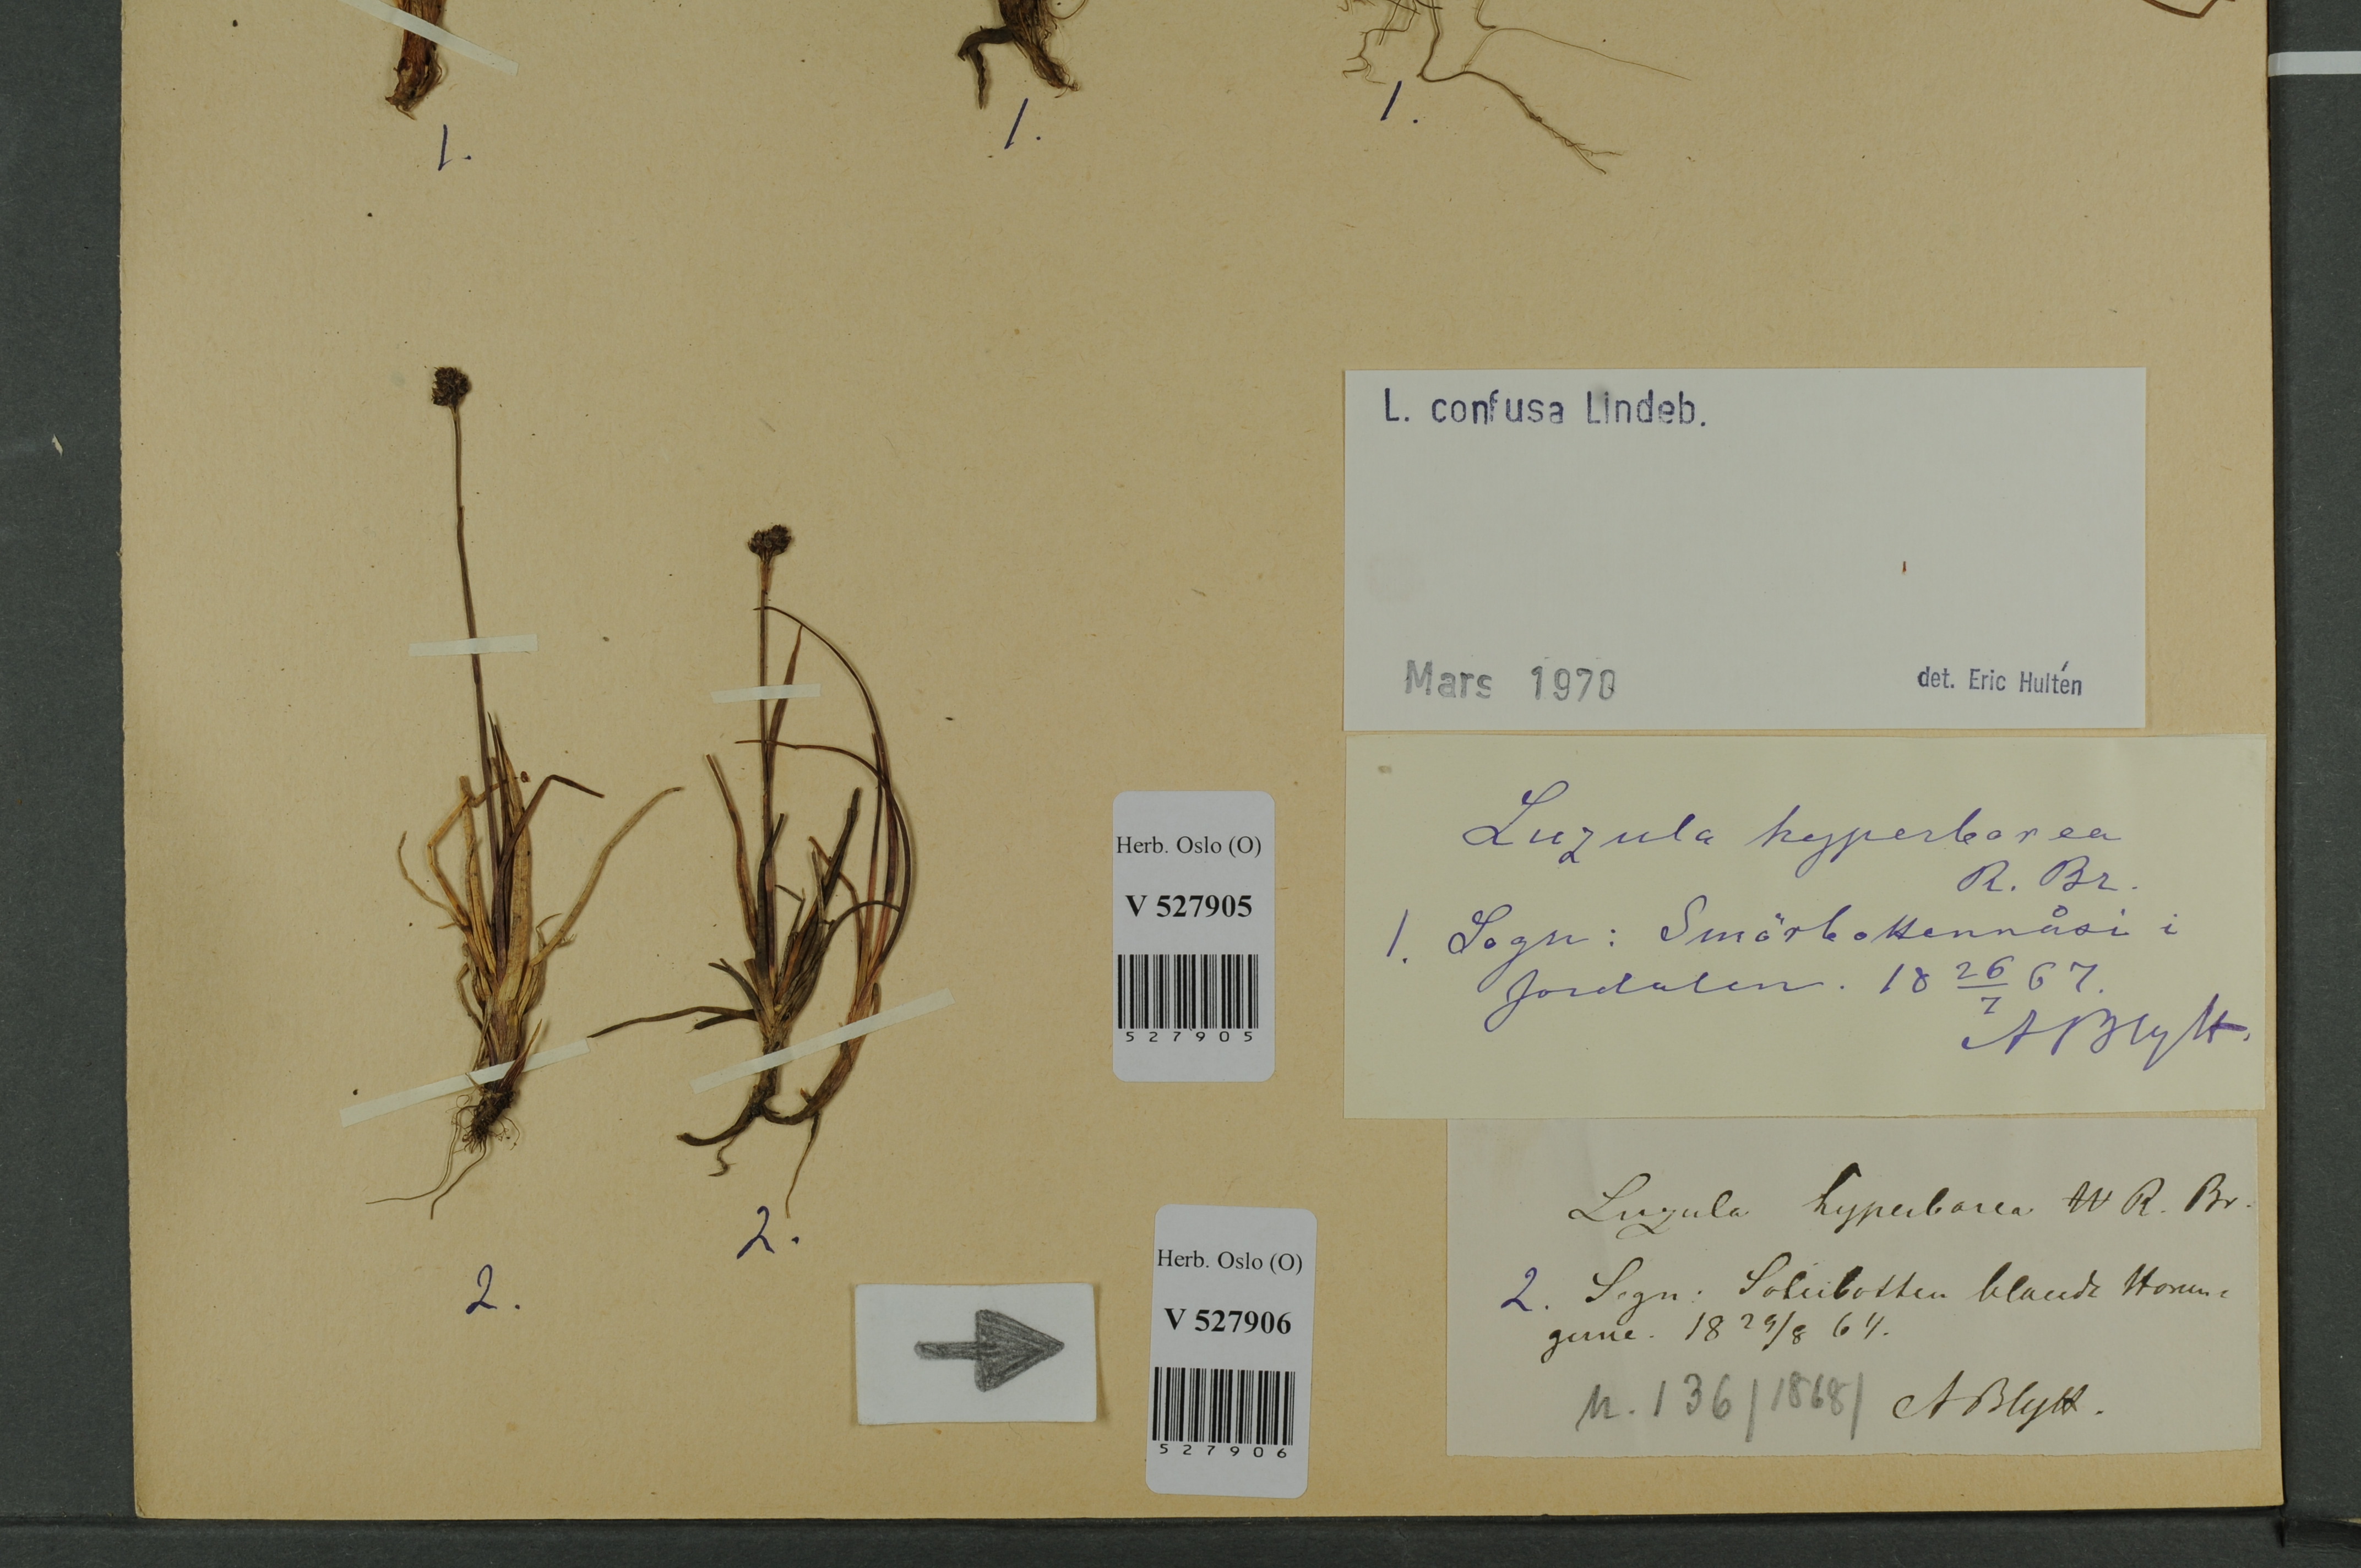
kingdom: Plantae
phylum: Tracheophyta
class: Liliopsida
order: Poales
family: Juncaceae
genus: Luzula
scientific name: Luzula confusa
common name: Northern wood rush
